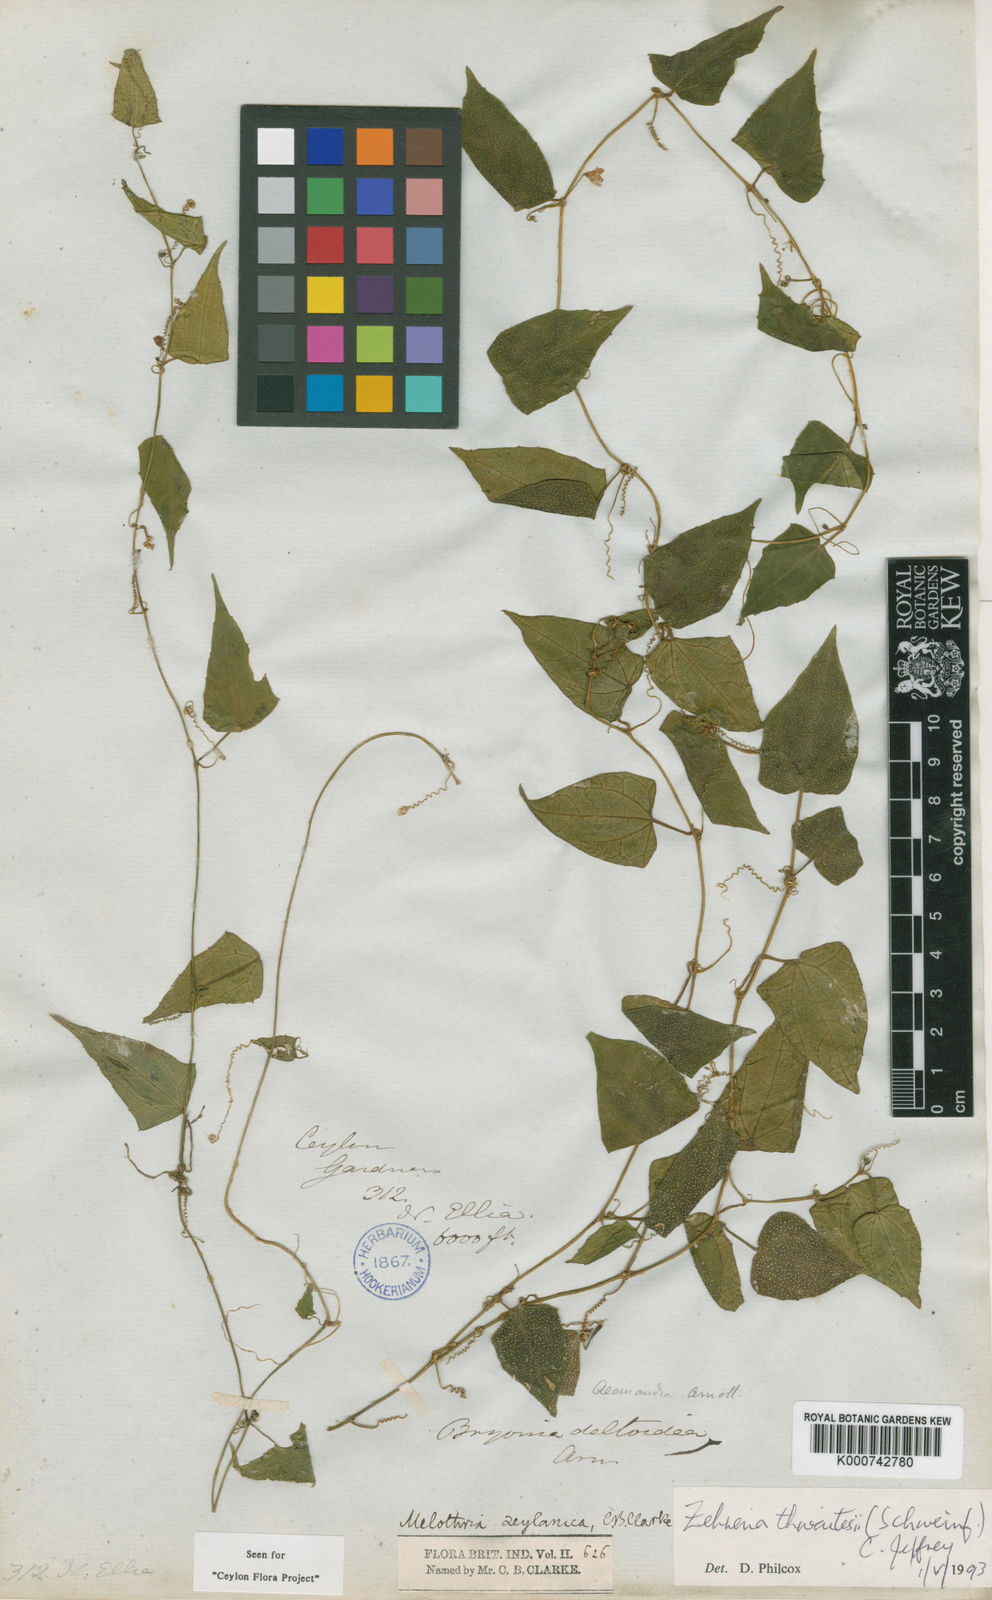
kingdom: Plantae
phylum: Tracheophyta
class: Magnoliopsida
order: Cucurbitales
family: Cucurbitaceae
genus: Zehneria
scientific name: Zehneria thwaitesii
